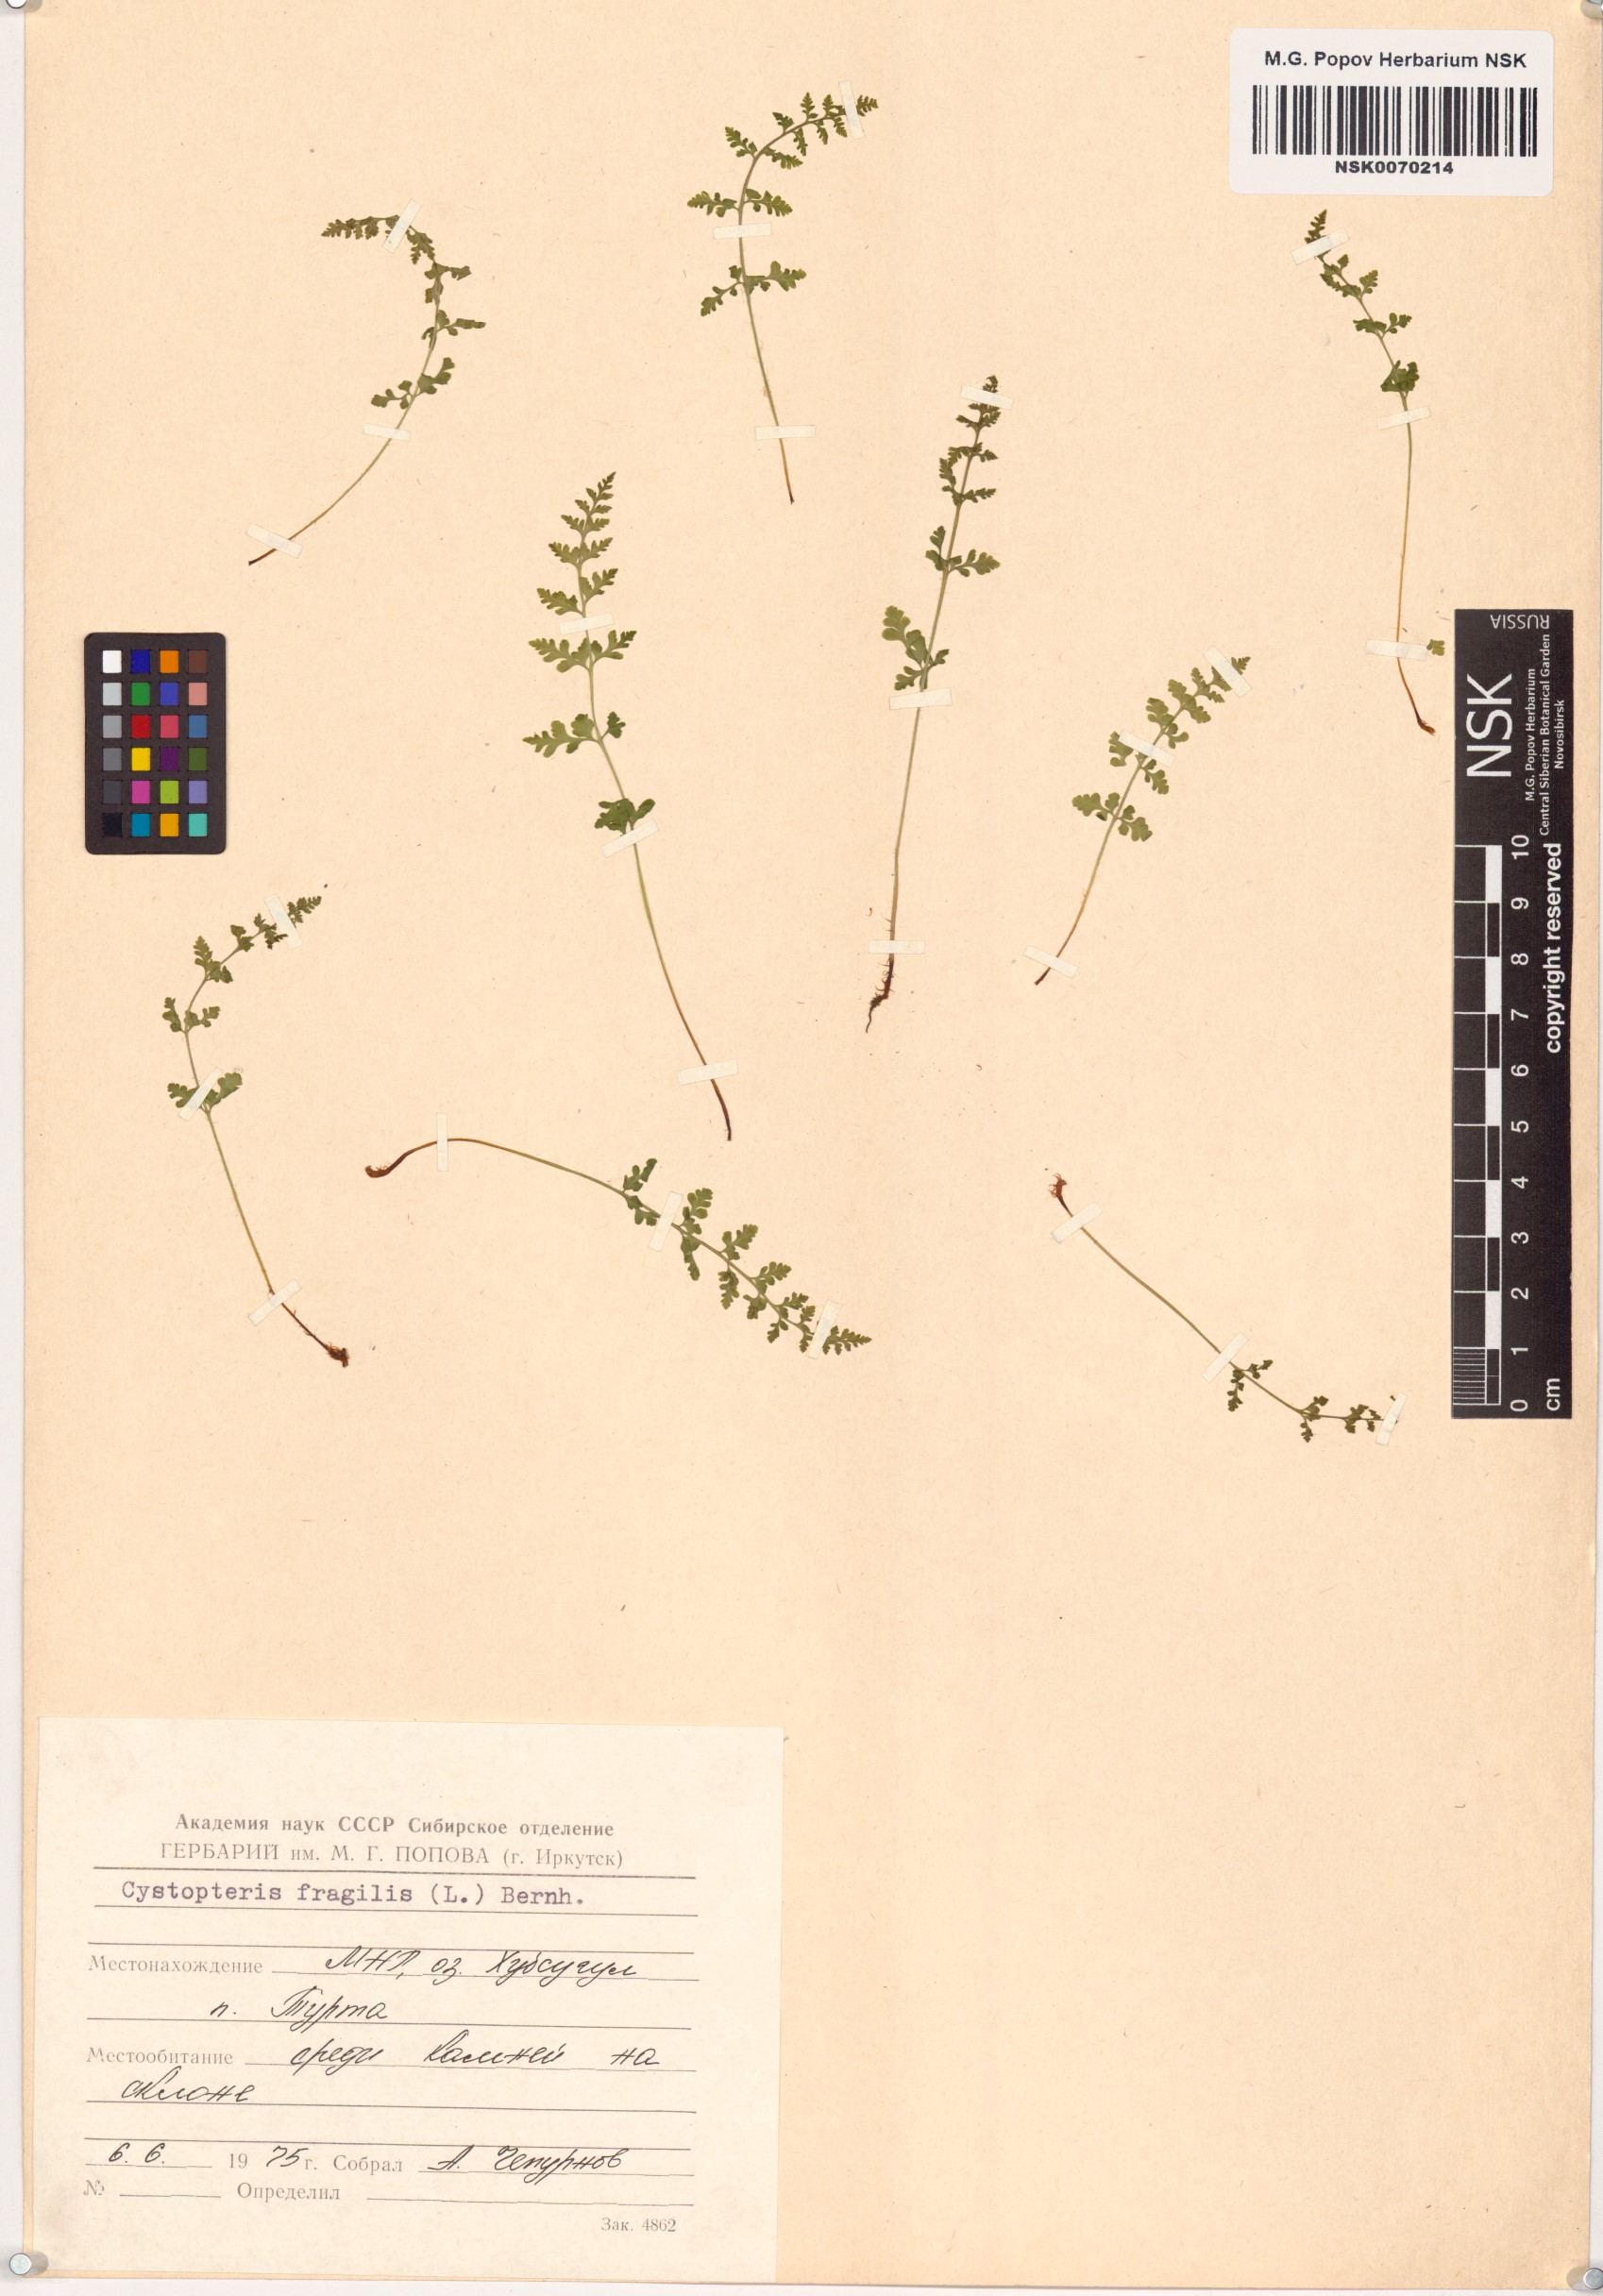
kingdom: Plantae
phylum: Tracheophyta
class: Polypodiopsida
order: Polypodiales
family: Cystopteridaceae
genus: Cystopteris
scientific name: Cystopteris fragilis
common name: Brittle bladder fern
